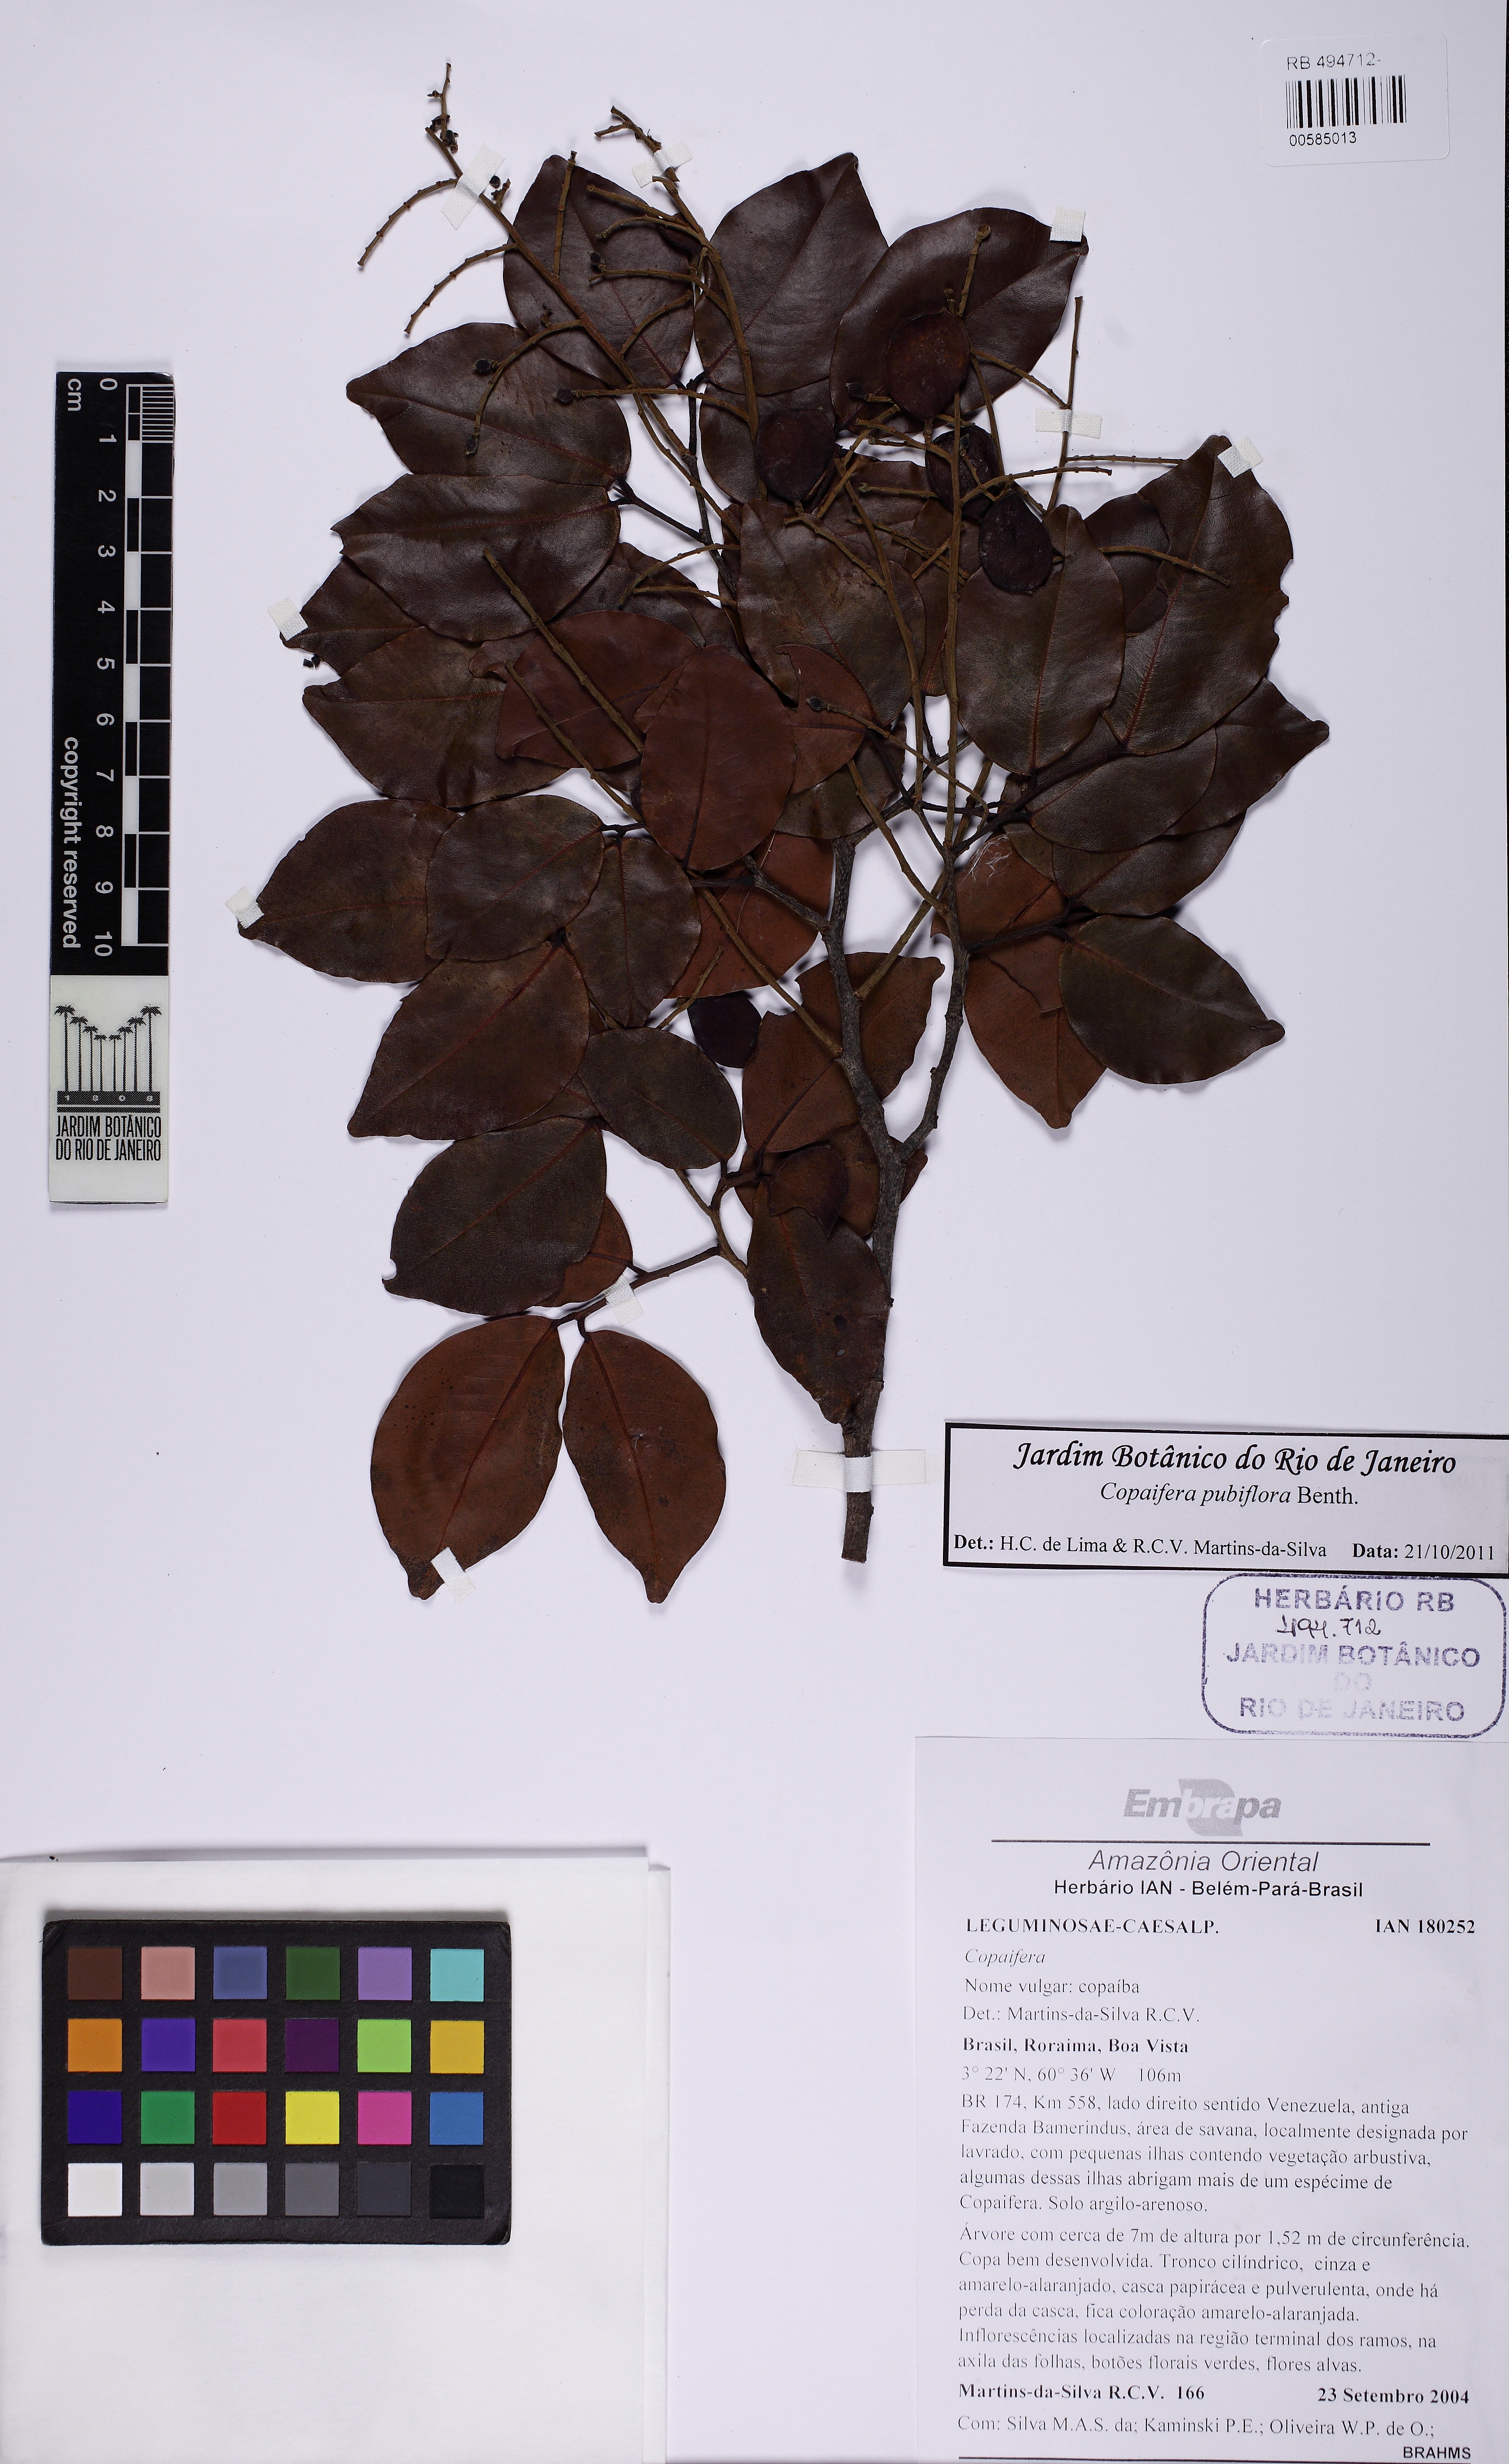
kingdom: Plantae
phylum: Tracheophyta
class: Magnoliopsida
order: Fabales
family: Fabaceae
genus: Copaifera
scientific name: Copaifera pubiflora
